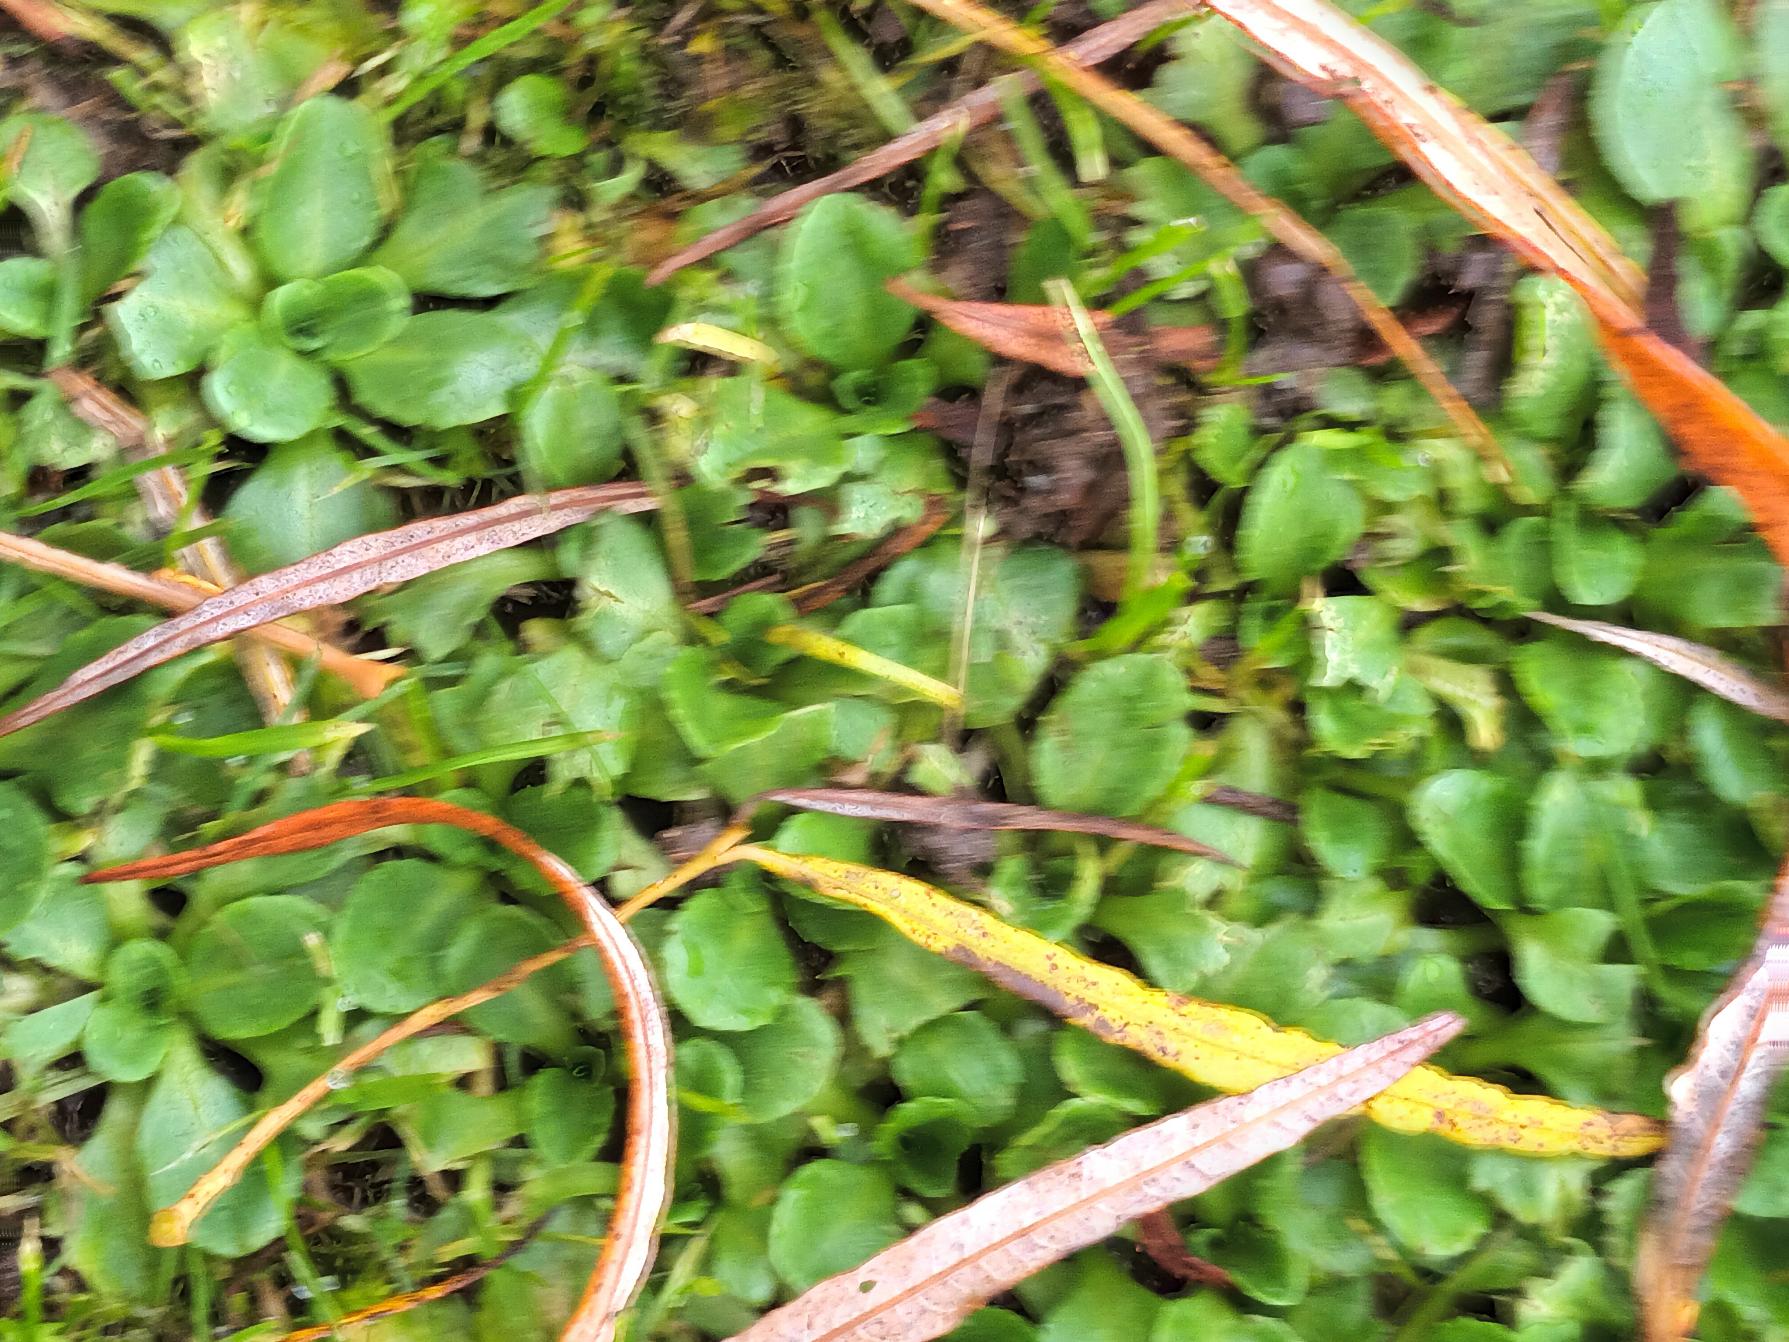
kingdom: Plantae
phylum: Tracheophyta
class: Magnoliopsida
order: Asterales
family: Asteraceae
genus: Bellis
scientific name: Bellis perennis
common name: Tusindfryd
